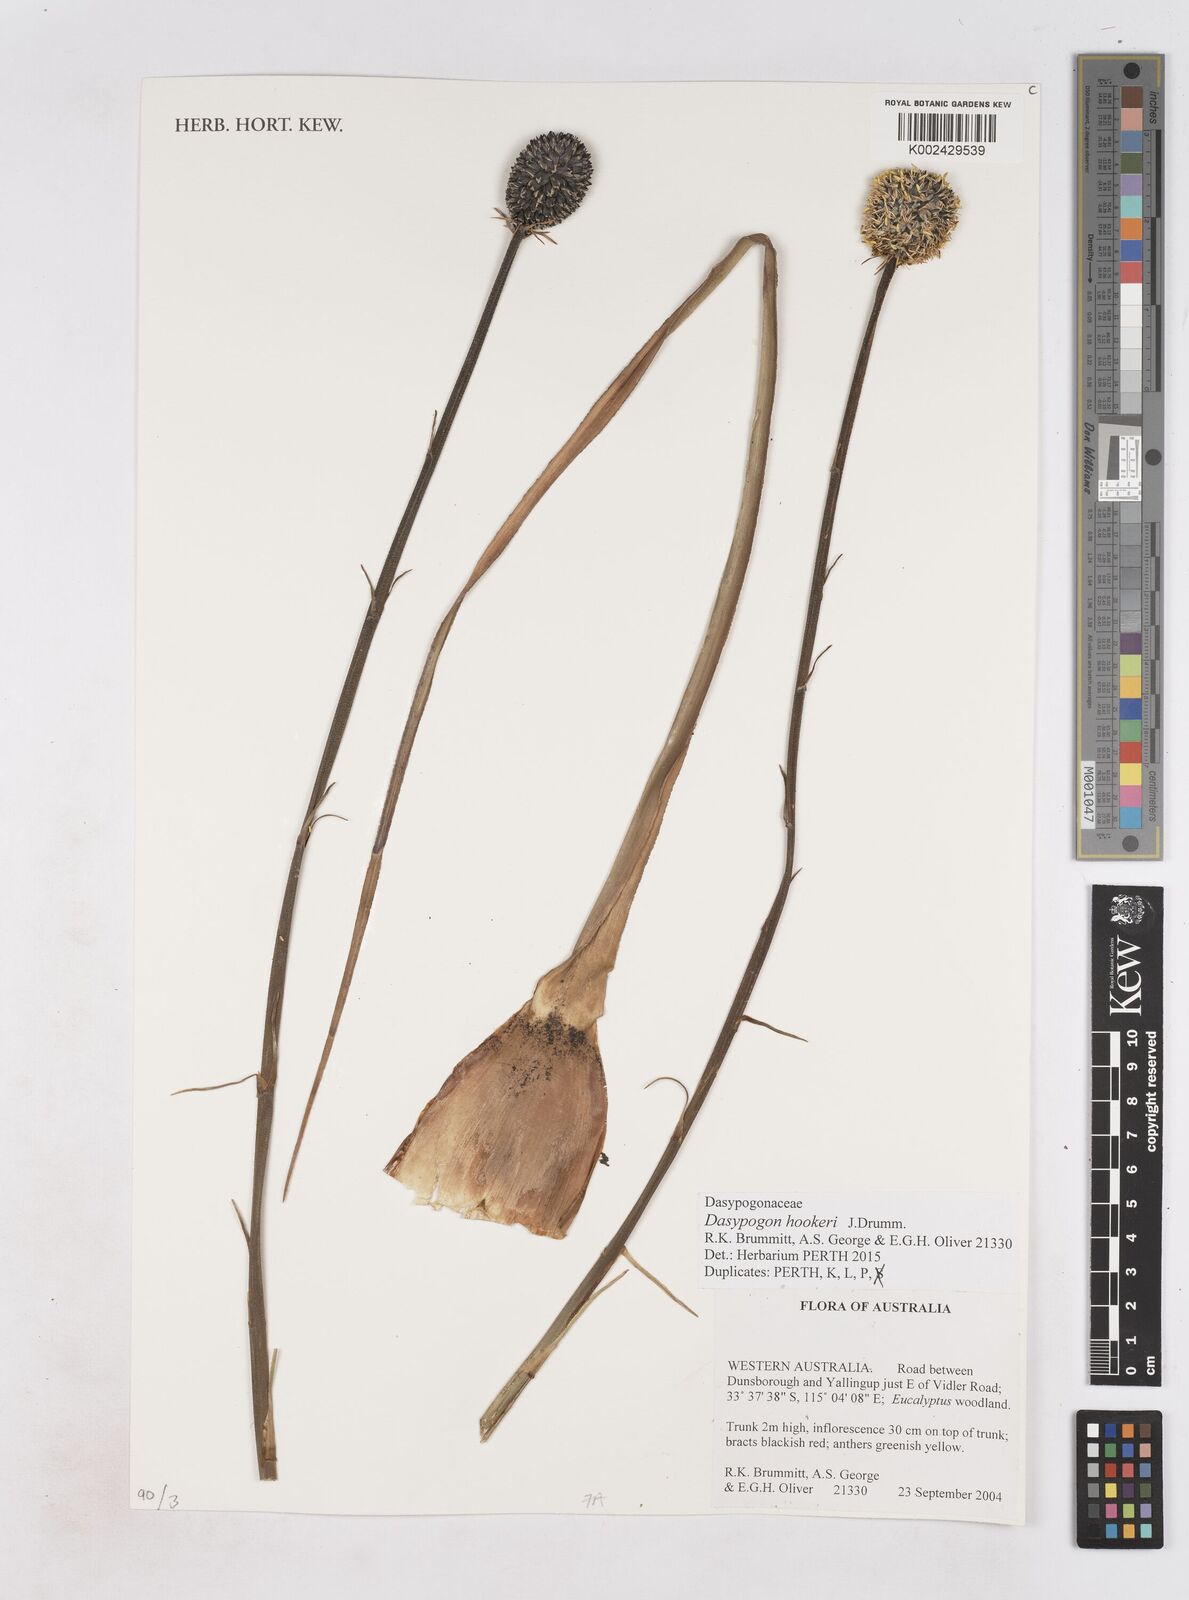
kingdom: Plantae
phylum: Tracheophyta
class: Liliopsida
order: Arecales
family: Dasypogonaceae
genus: Dasypogon
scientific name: Dasypogon hookeri
